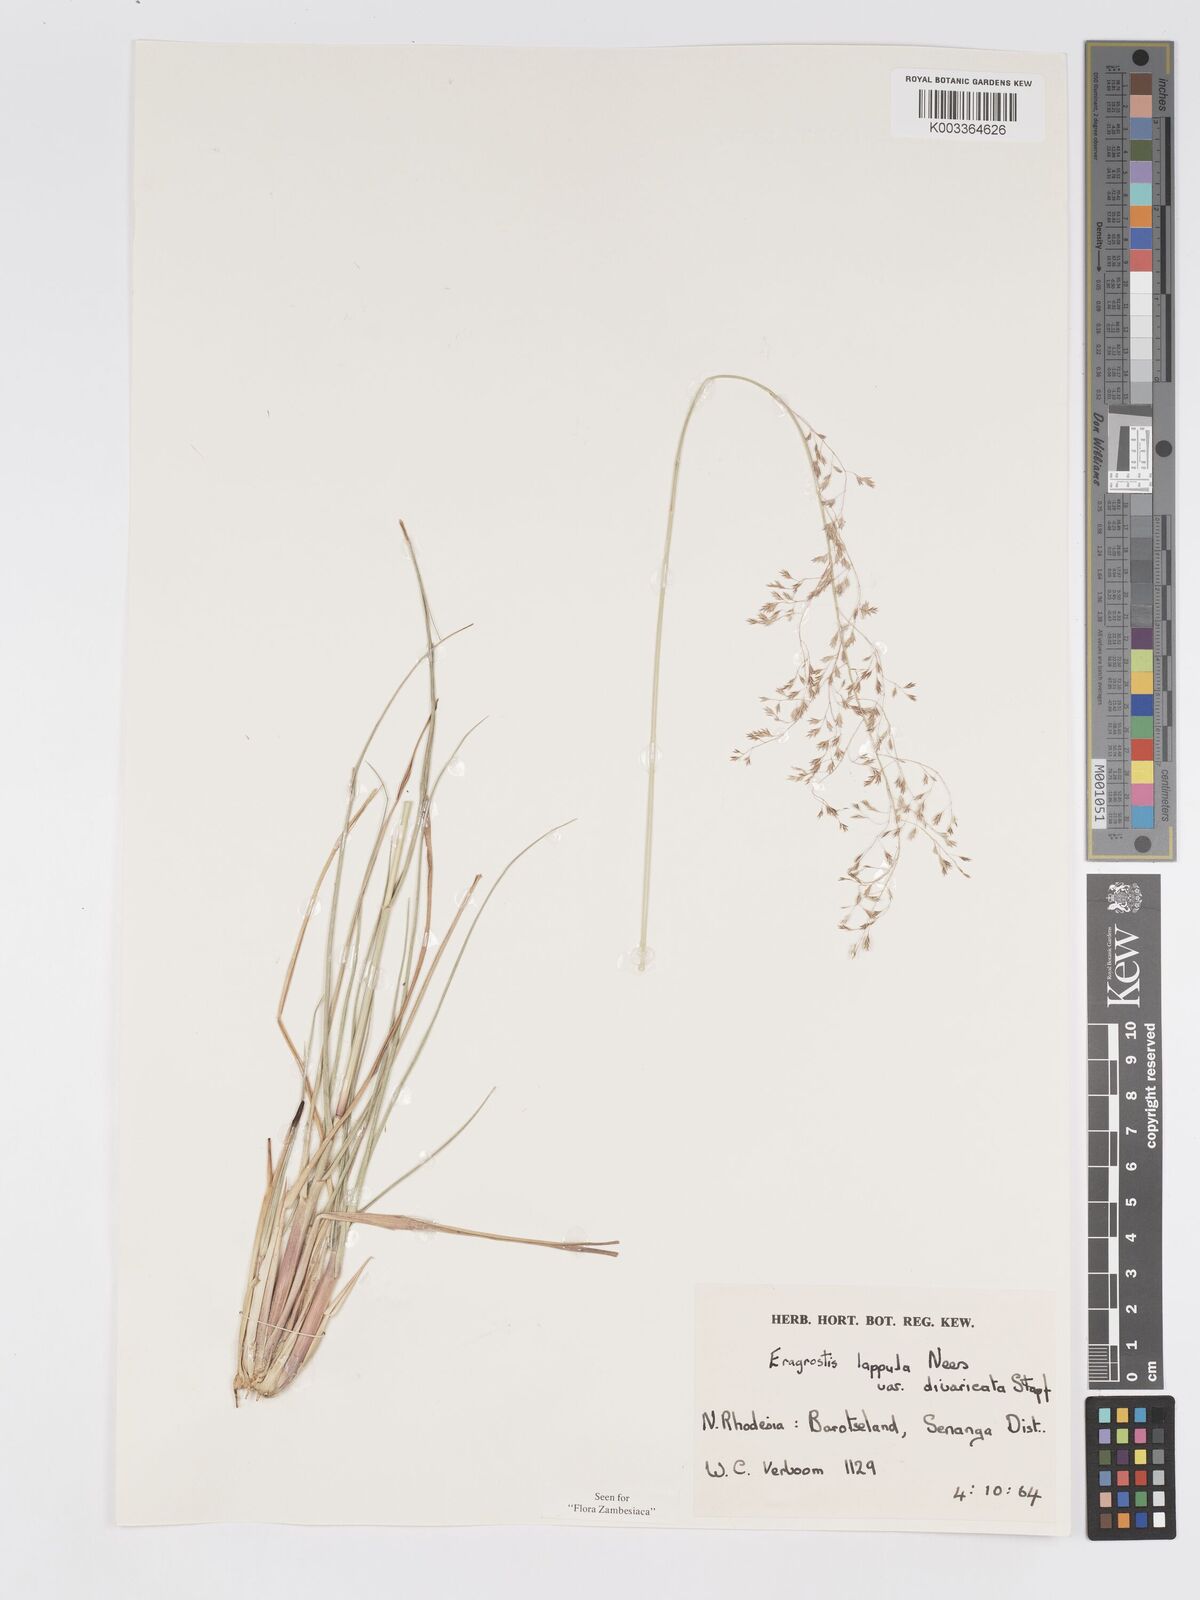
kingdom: Plantae
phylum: Tracheophyta
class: Liliopsida
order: Poales
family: Poaceae
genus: Eragrostis
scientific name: Eragrostis lappula
